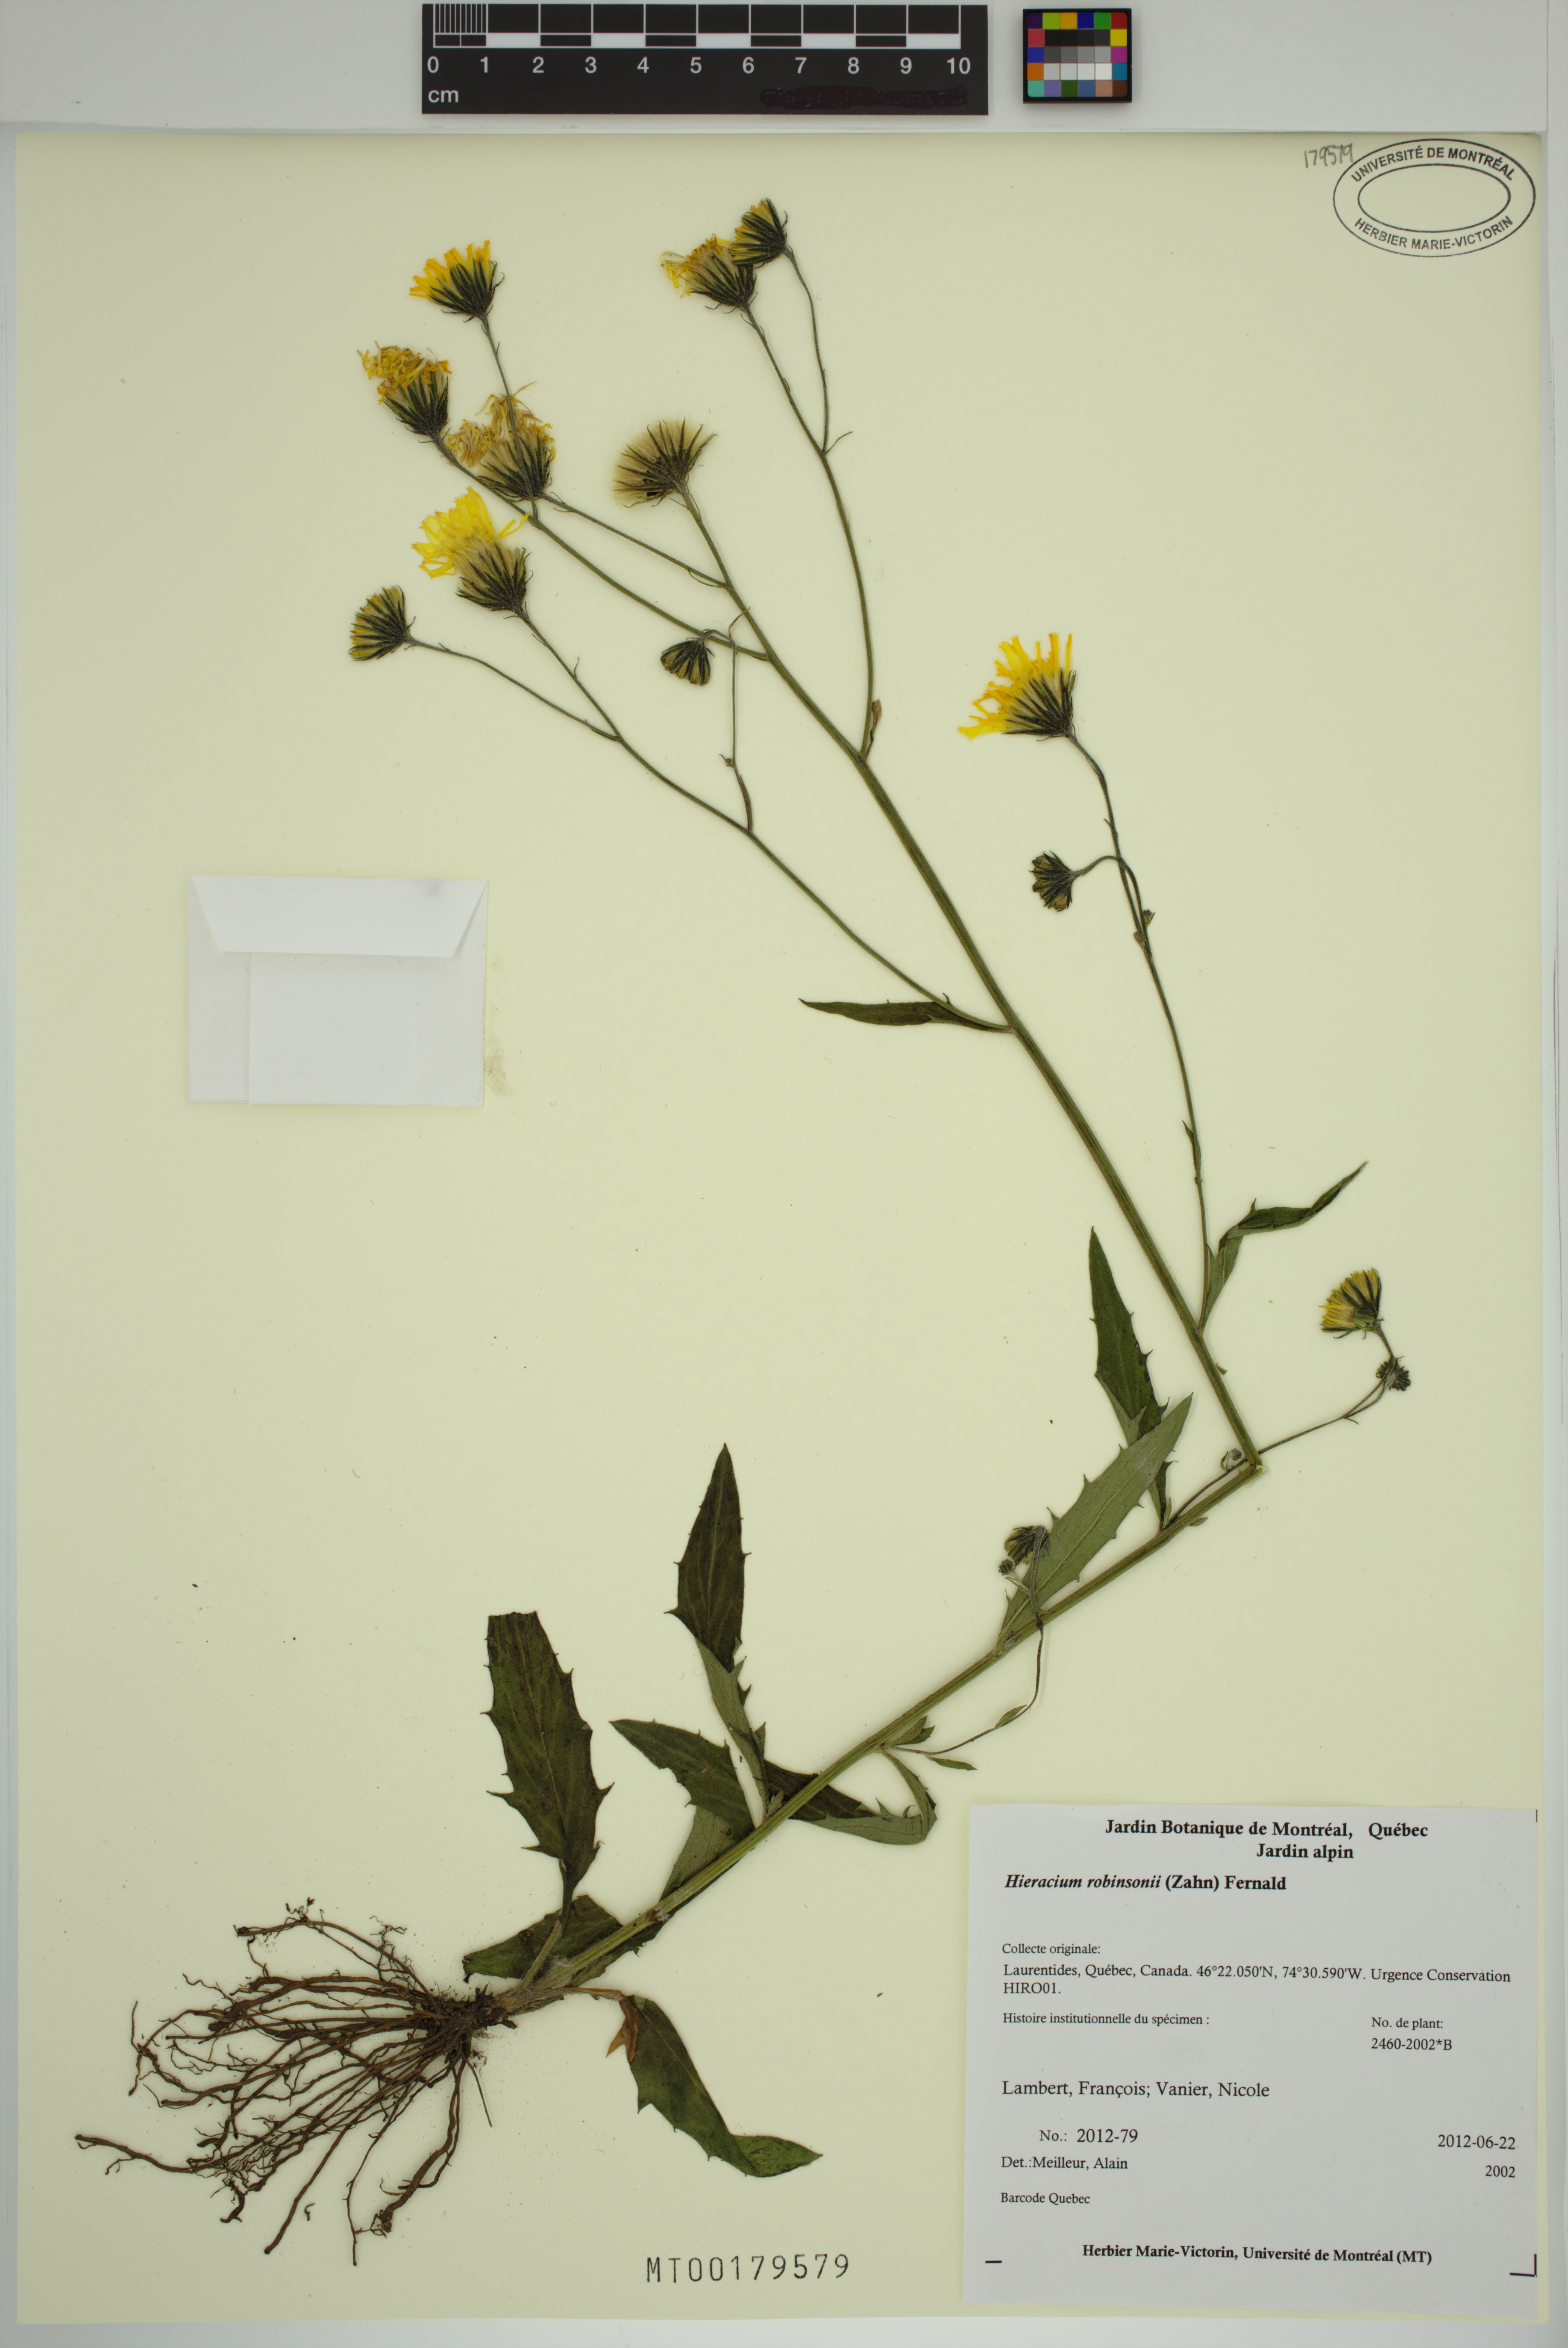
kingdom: Plantae
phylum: Tracheophyta
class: Magnoliopsida
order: Asterales
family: Asteraceae
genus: Hieracium
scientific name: Hieracium robinsonii
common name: Robinson's hawkweed
